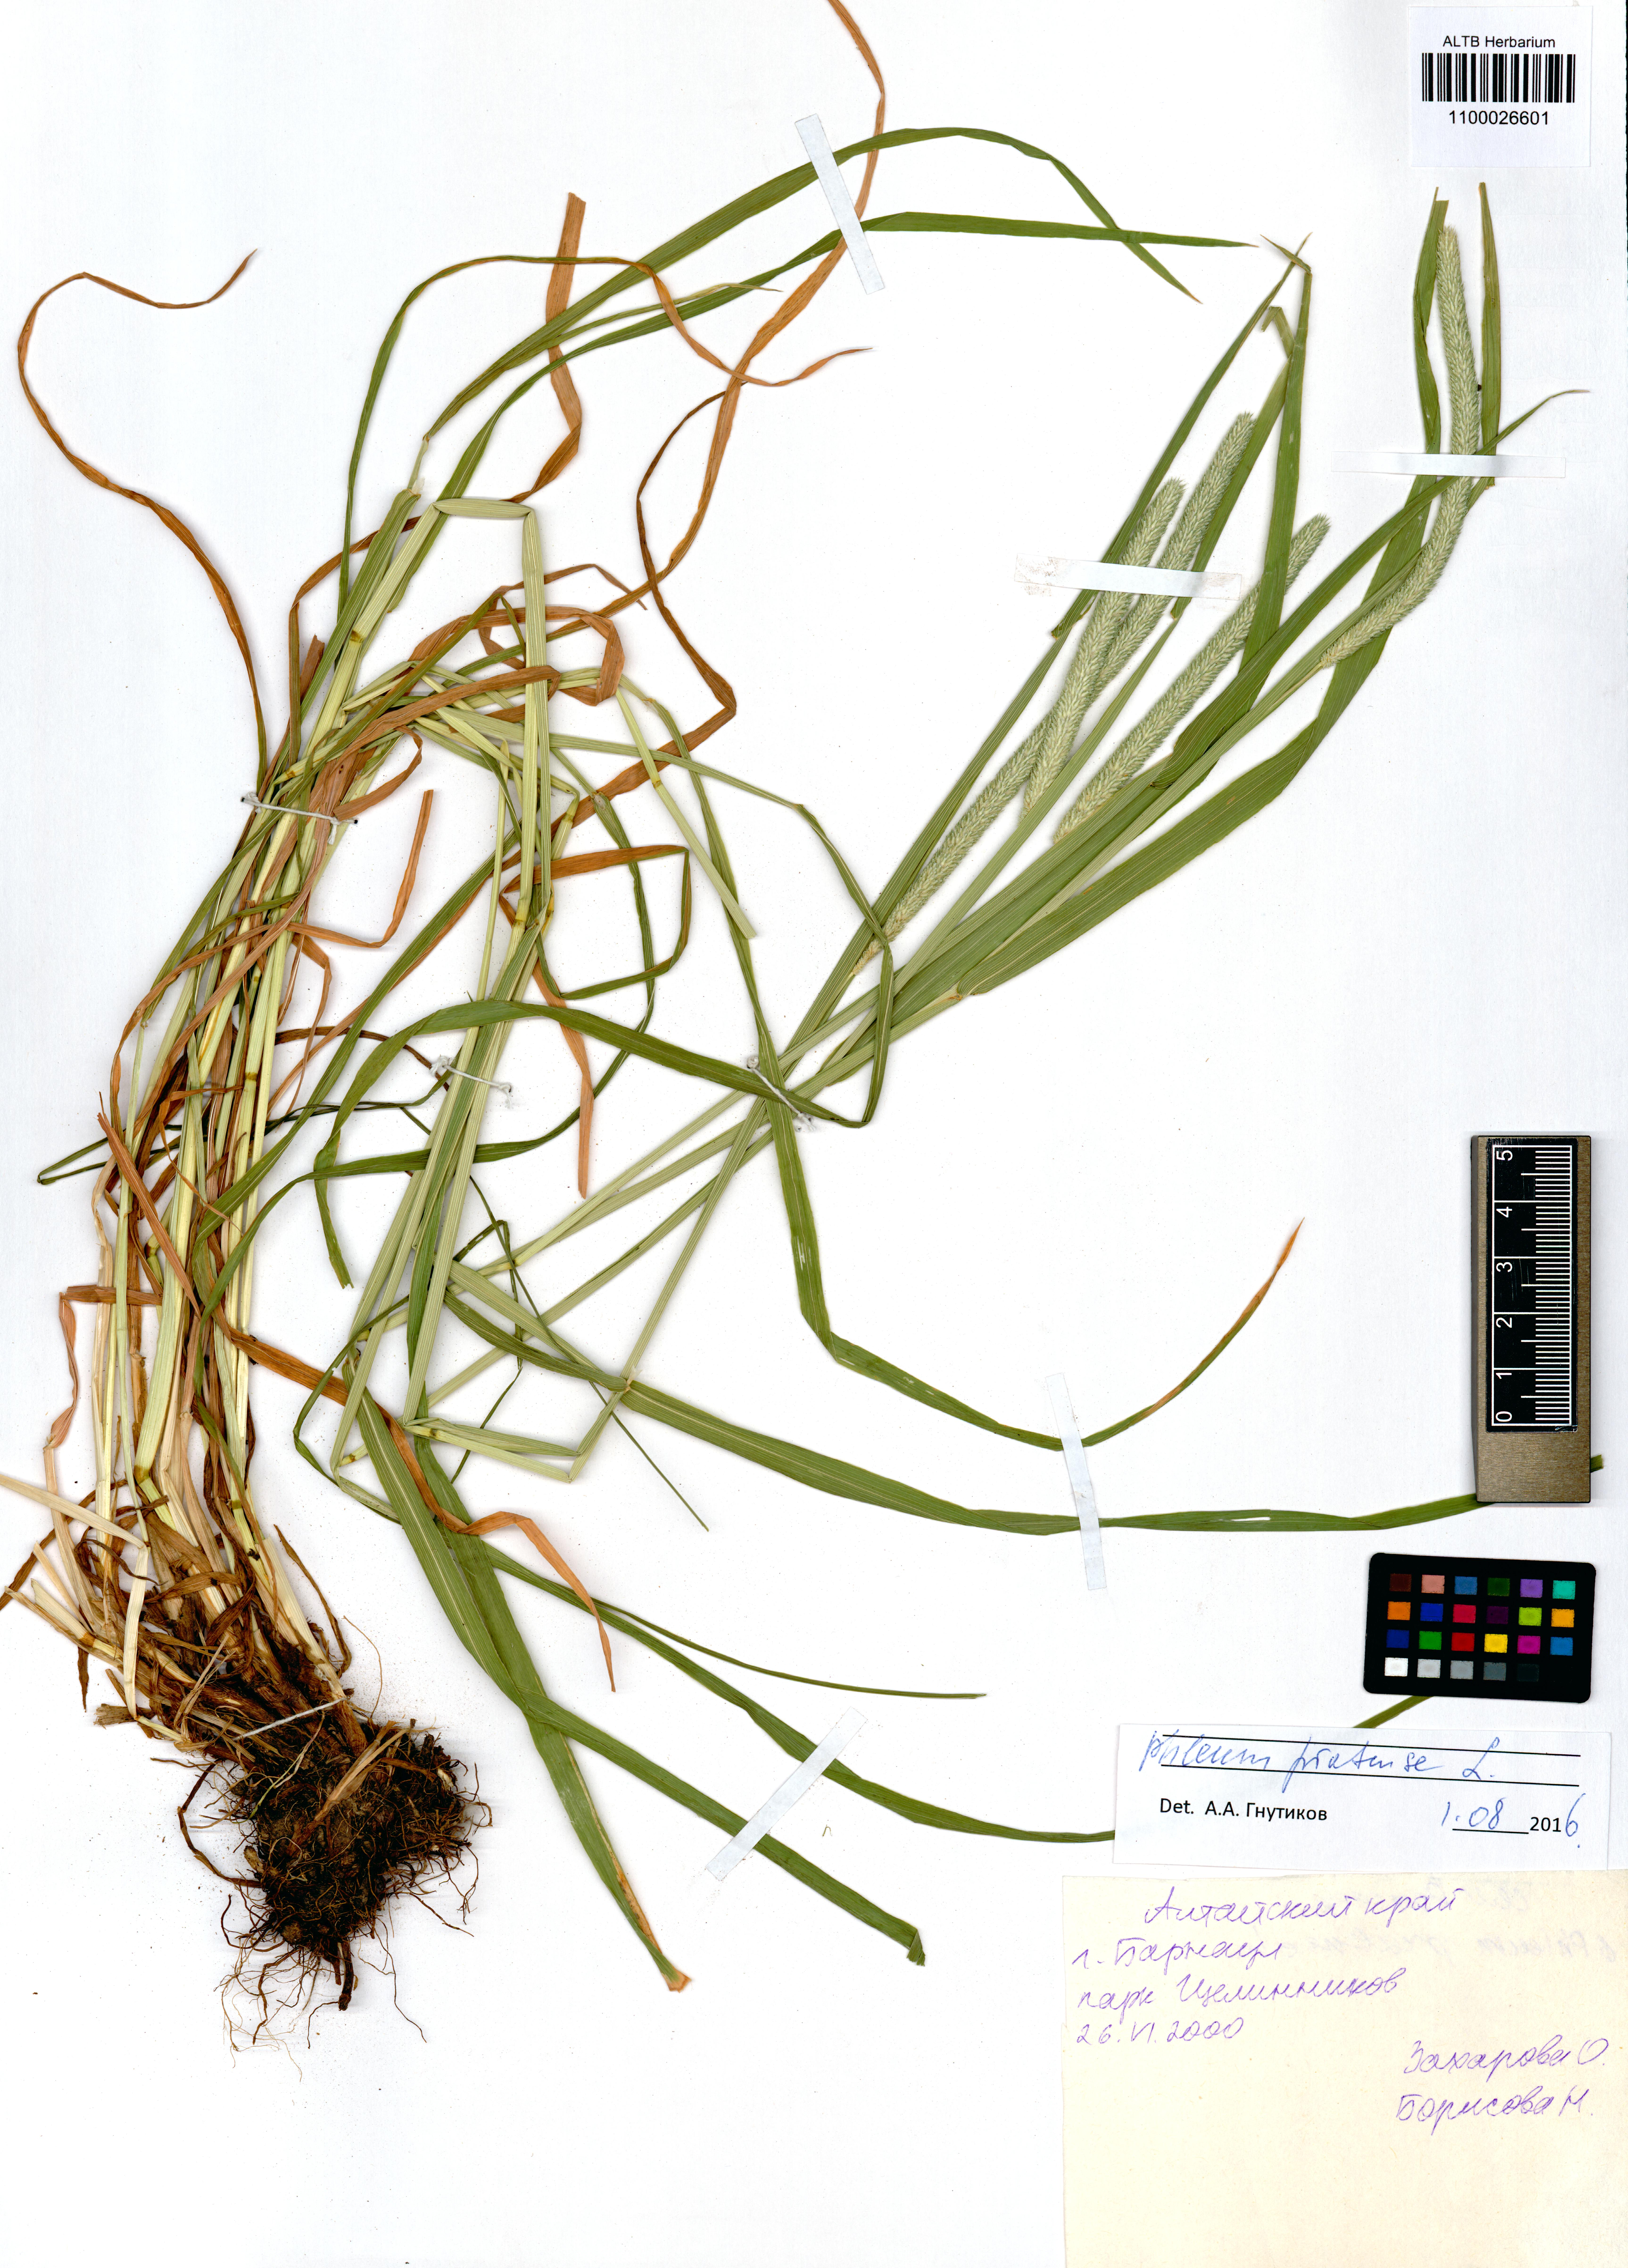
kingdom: Plantae
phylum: Tracheophyta
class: Liliopsida
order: Poales
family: Poaceae
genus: Phleum
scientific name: Phleum pratense
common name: Timothy grass
